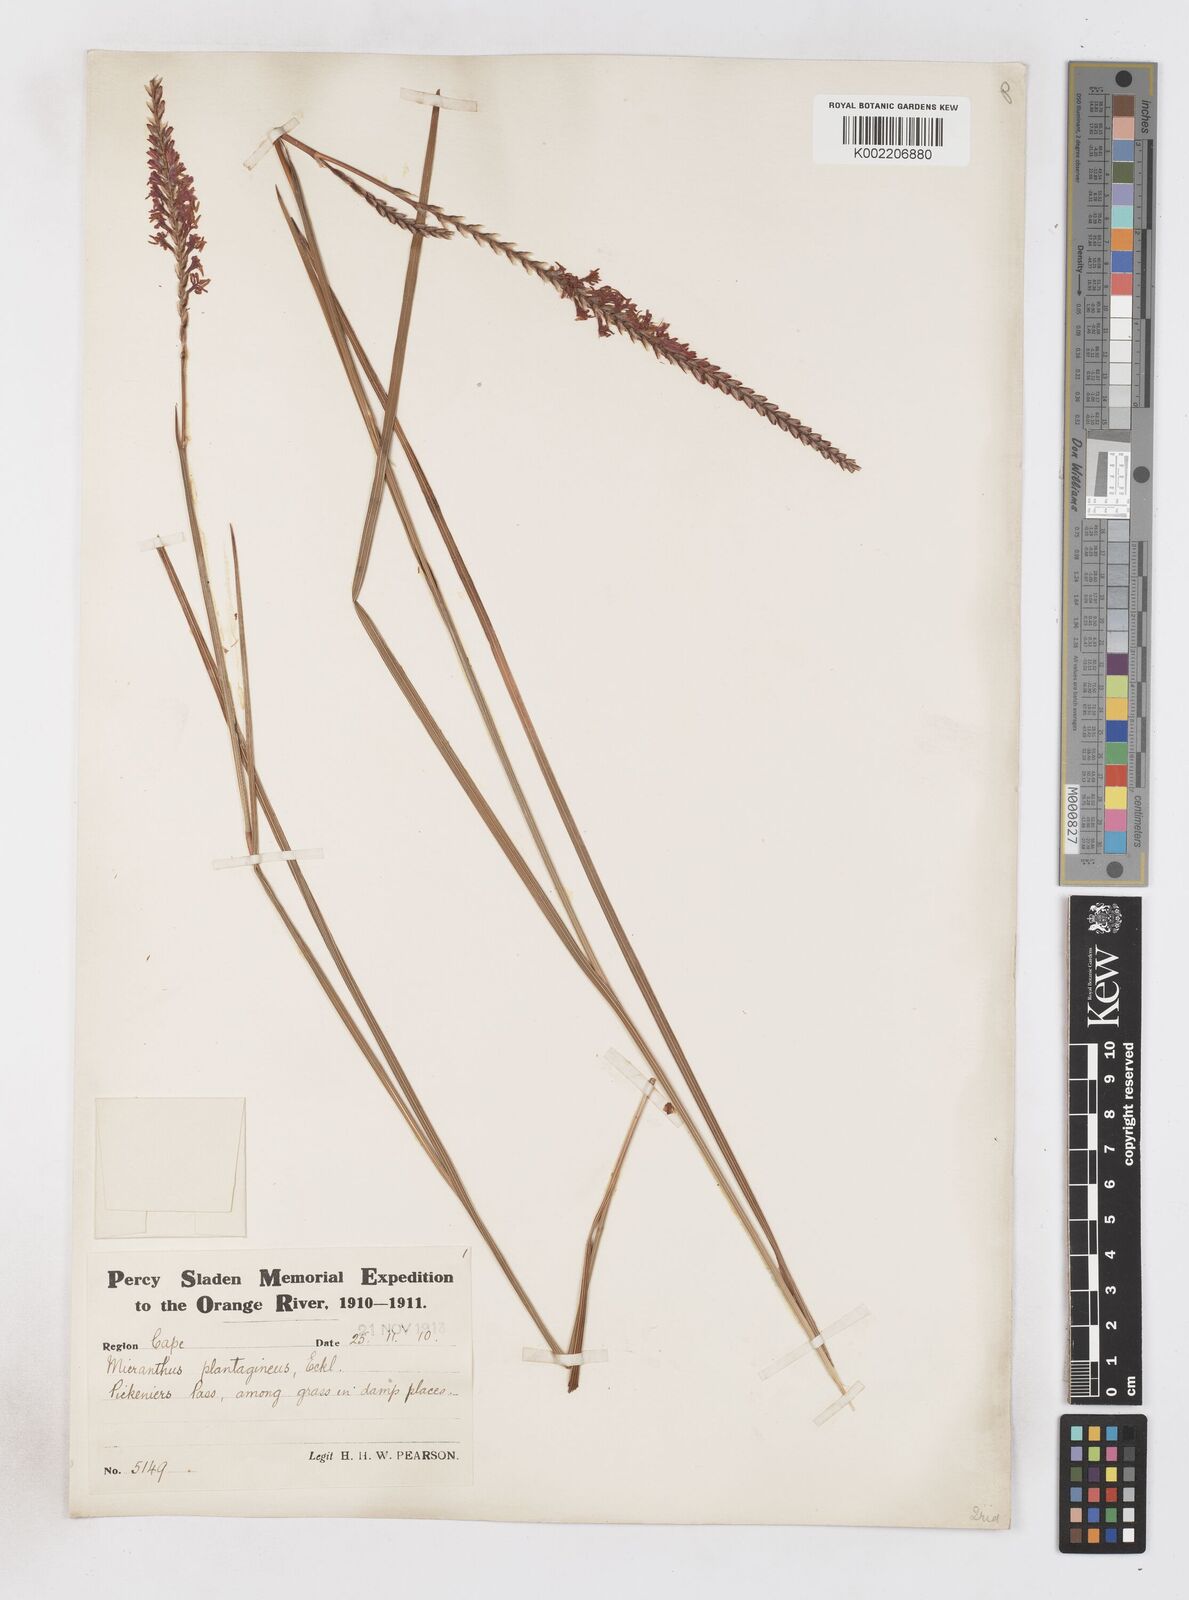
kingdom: Plantae
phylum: Tracheophyta
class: Liliopsida
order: Asparagales
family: Iridaceae
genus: Micranthus
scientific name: Micranthus plantagineus
